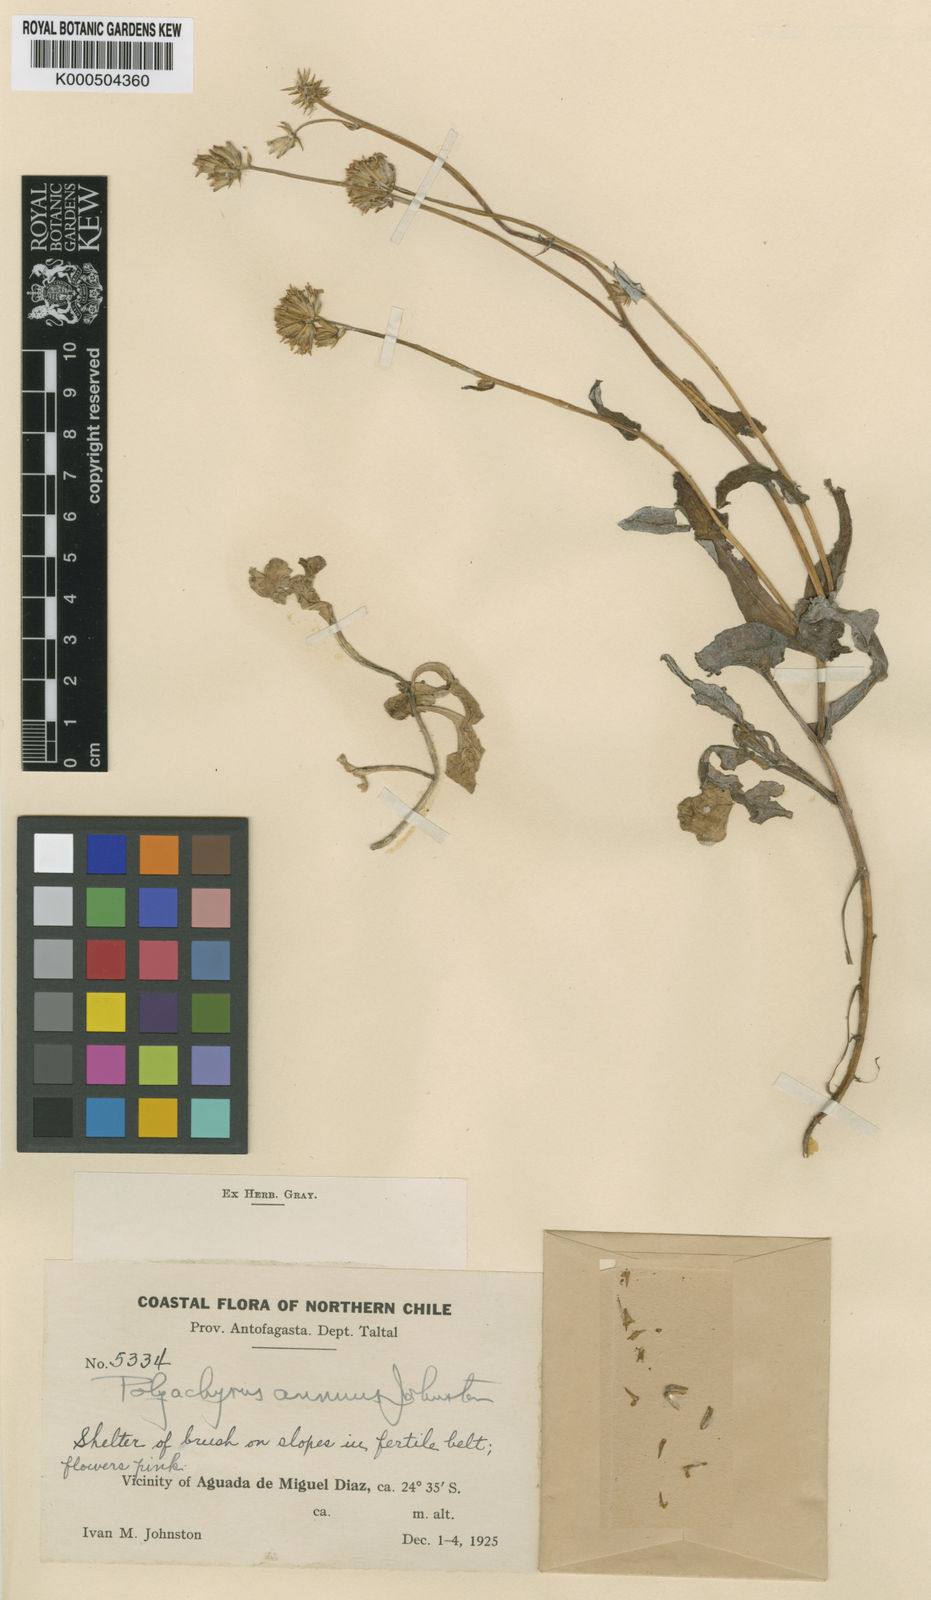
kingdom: Plantae
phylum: Tracheophyta
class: Magnoliopsida
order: Asterales
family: Asteraceae
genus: Polyachyrus
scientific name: Polyachyrus annuus
